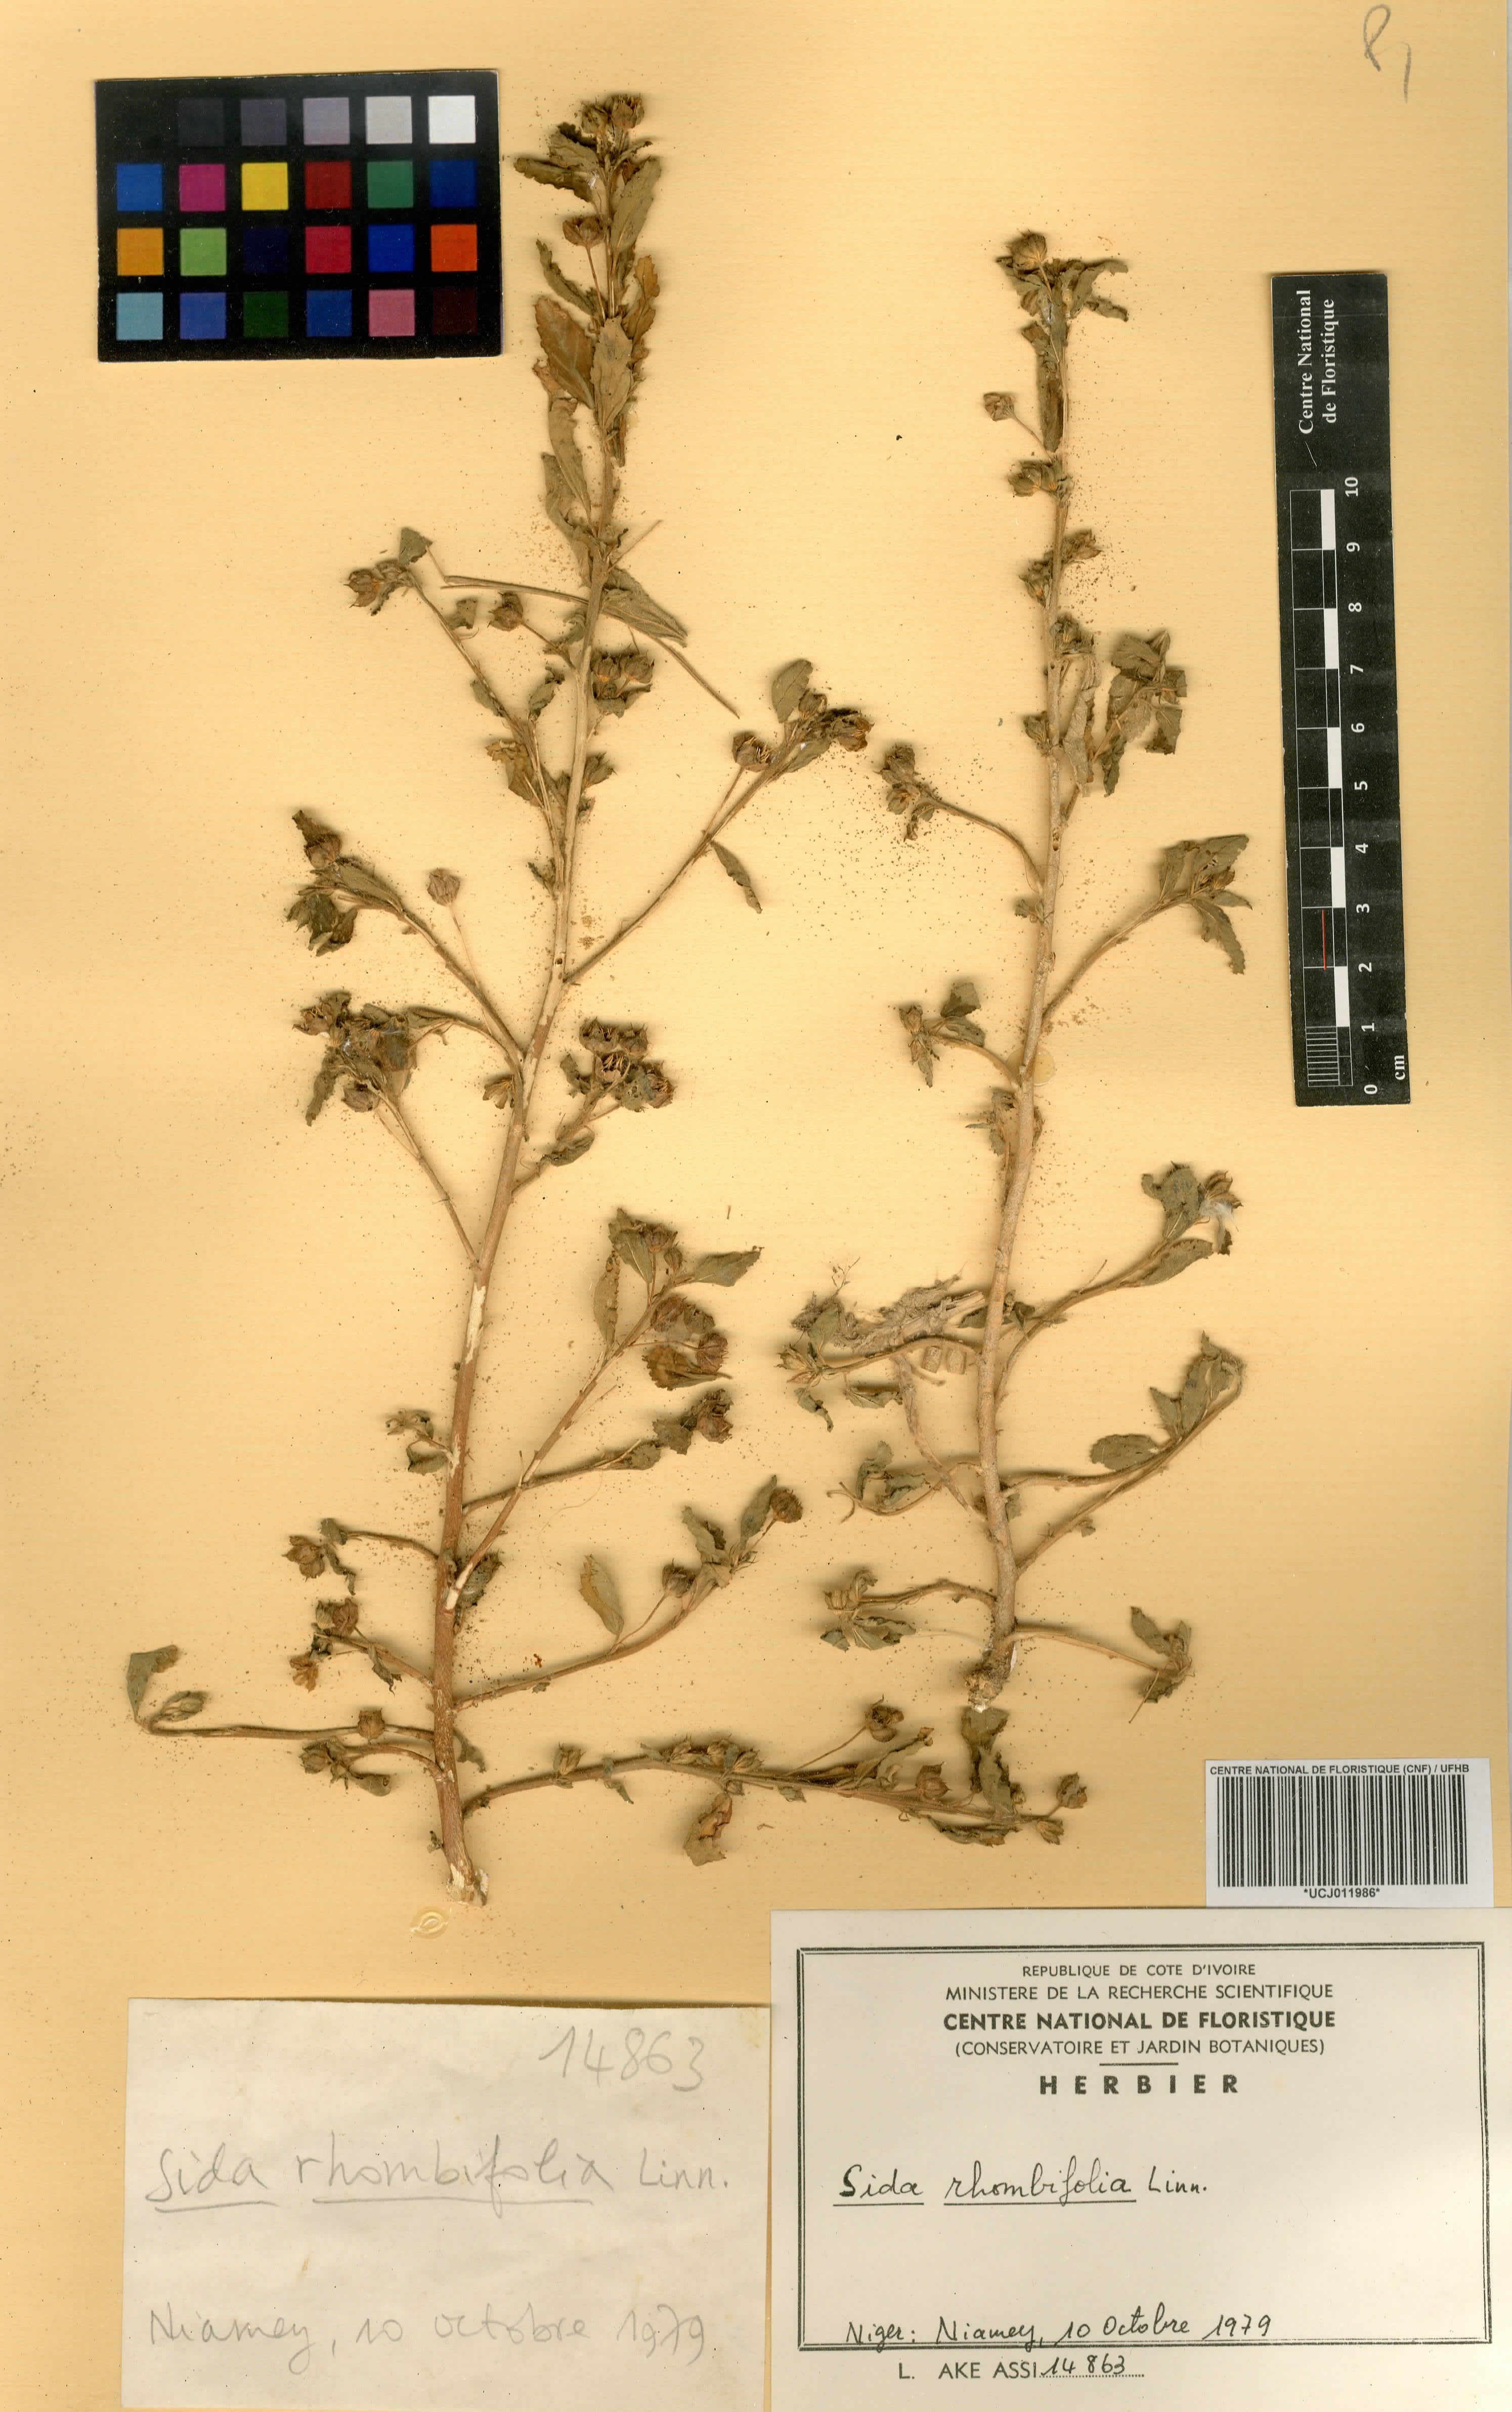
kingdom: Plantae
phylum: Tracheophyta
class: Magnoliopsida
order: Malvales
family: Malvaceae
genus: Sida
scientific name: Sida rhombifolia
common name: Queensland-hemp
